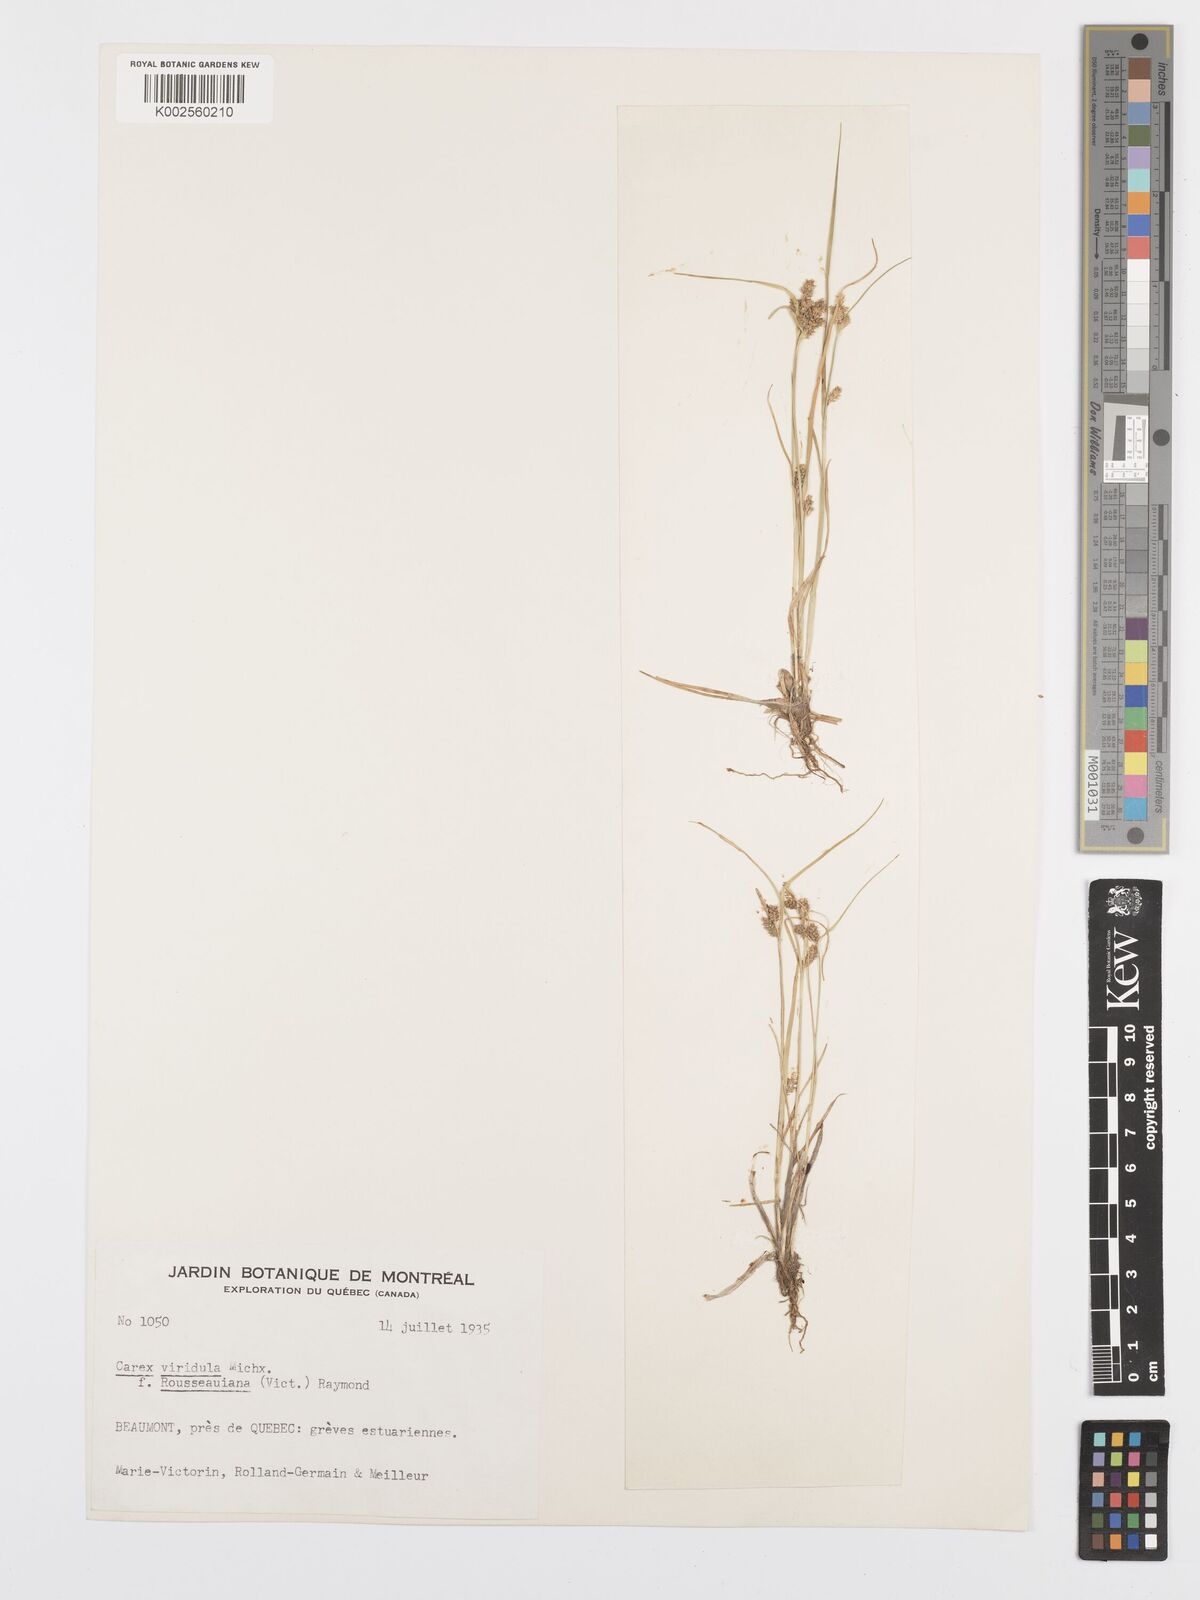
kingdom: Plantae
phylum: Tracheophyta
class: Liliopsida
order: Poales
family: Cyperaceae
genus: Carex
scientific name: Carex oederi
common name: Common & small-fruited yellow-sedge
